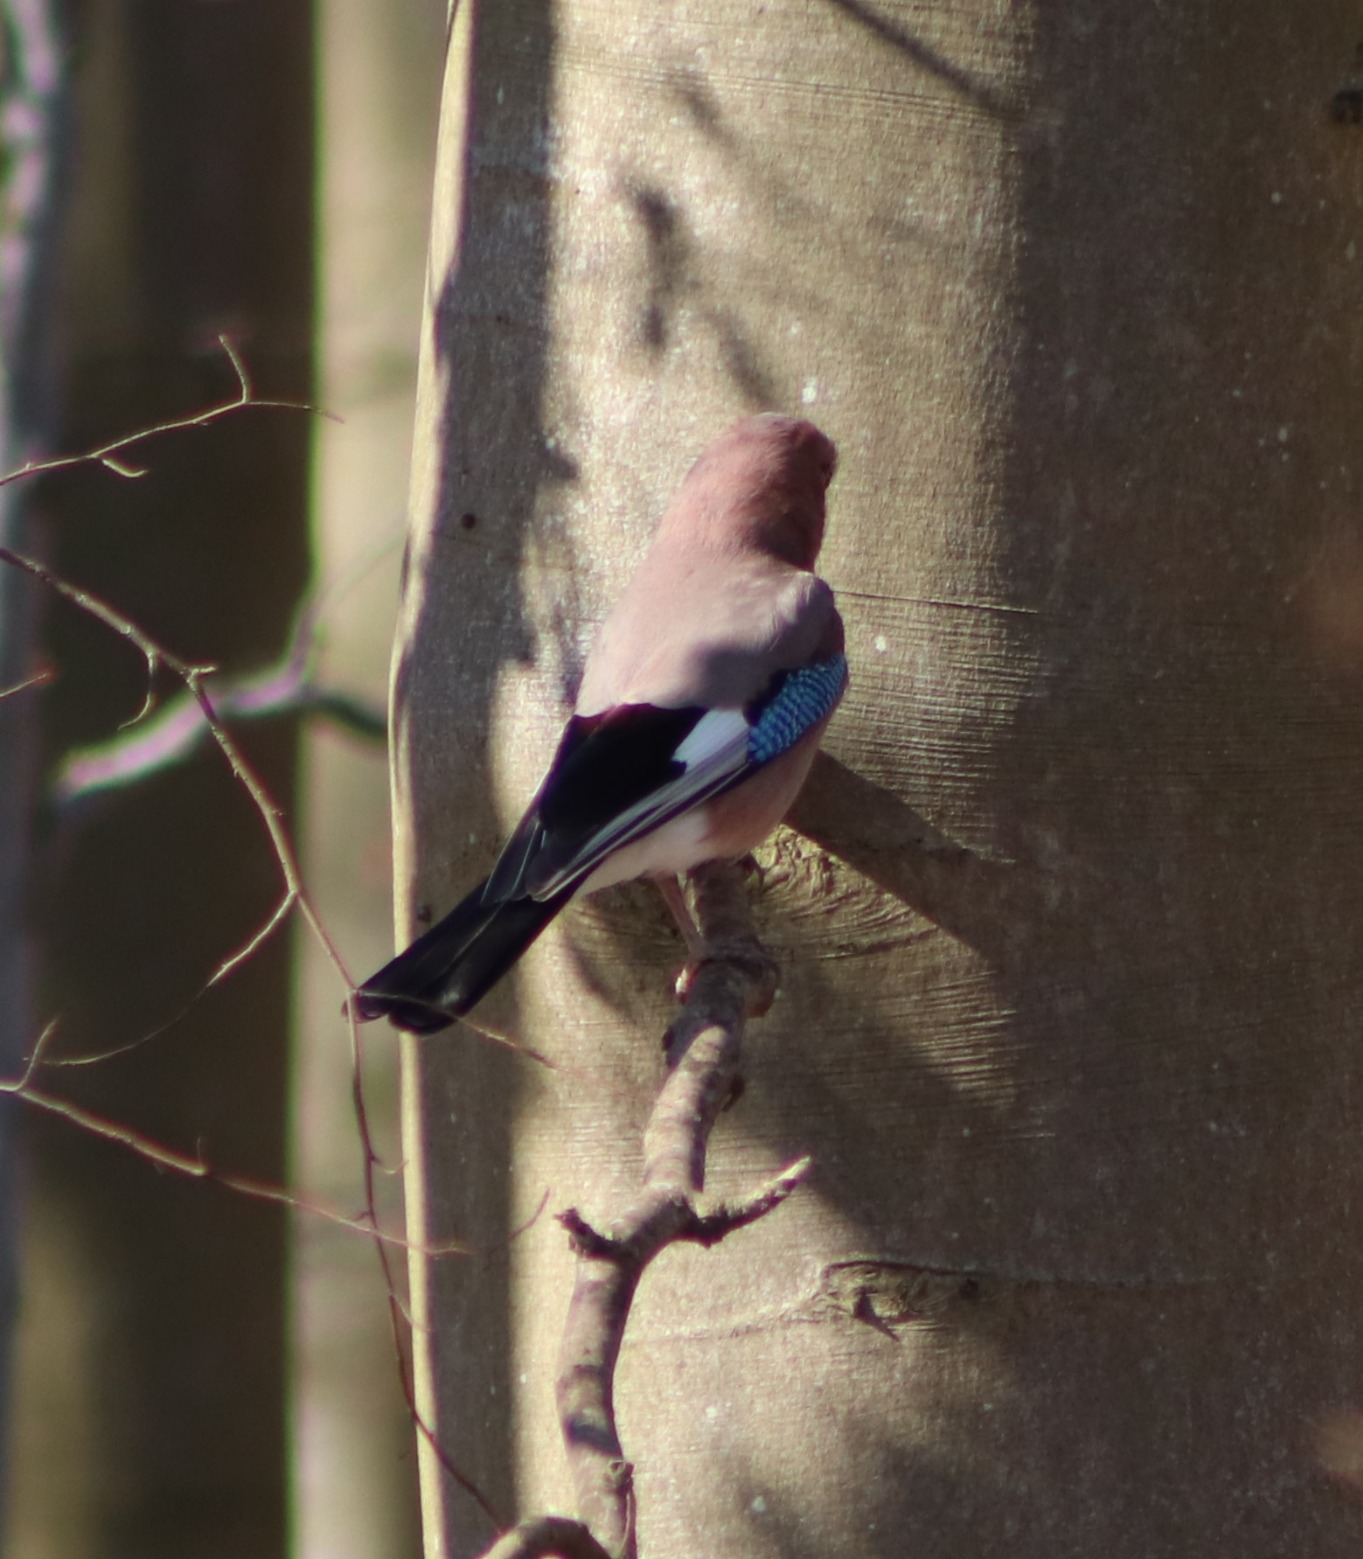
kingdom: Animalia
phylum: Chordata
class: Aves
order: Passeriformes
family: Corvidae
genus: Garrulus
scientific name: Garrulus glandarius
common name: Skovskade
